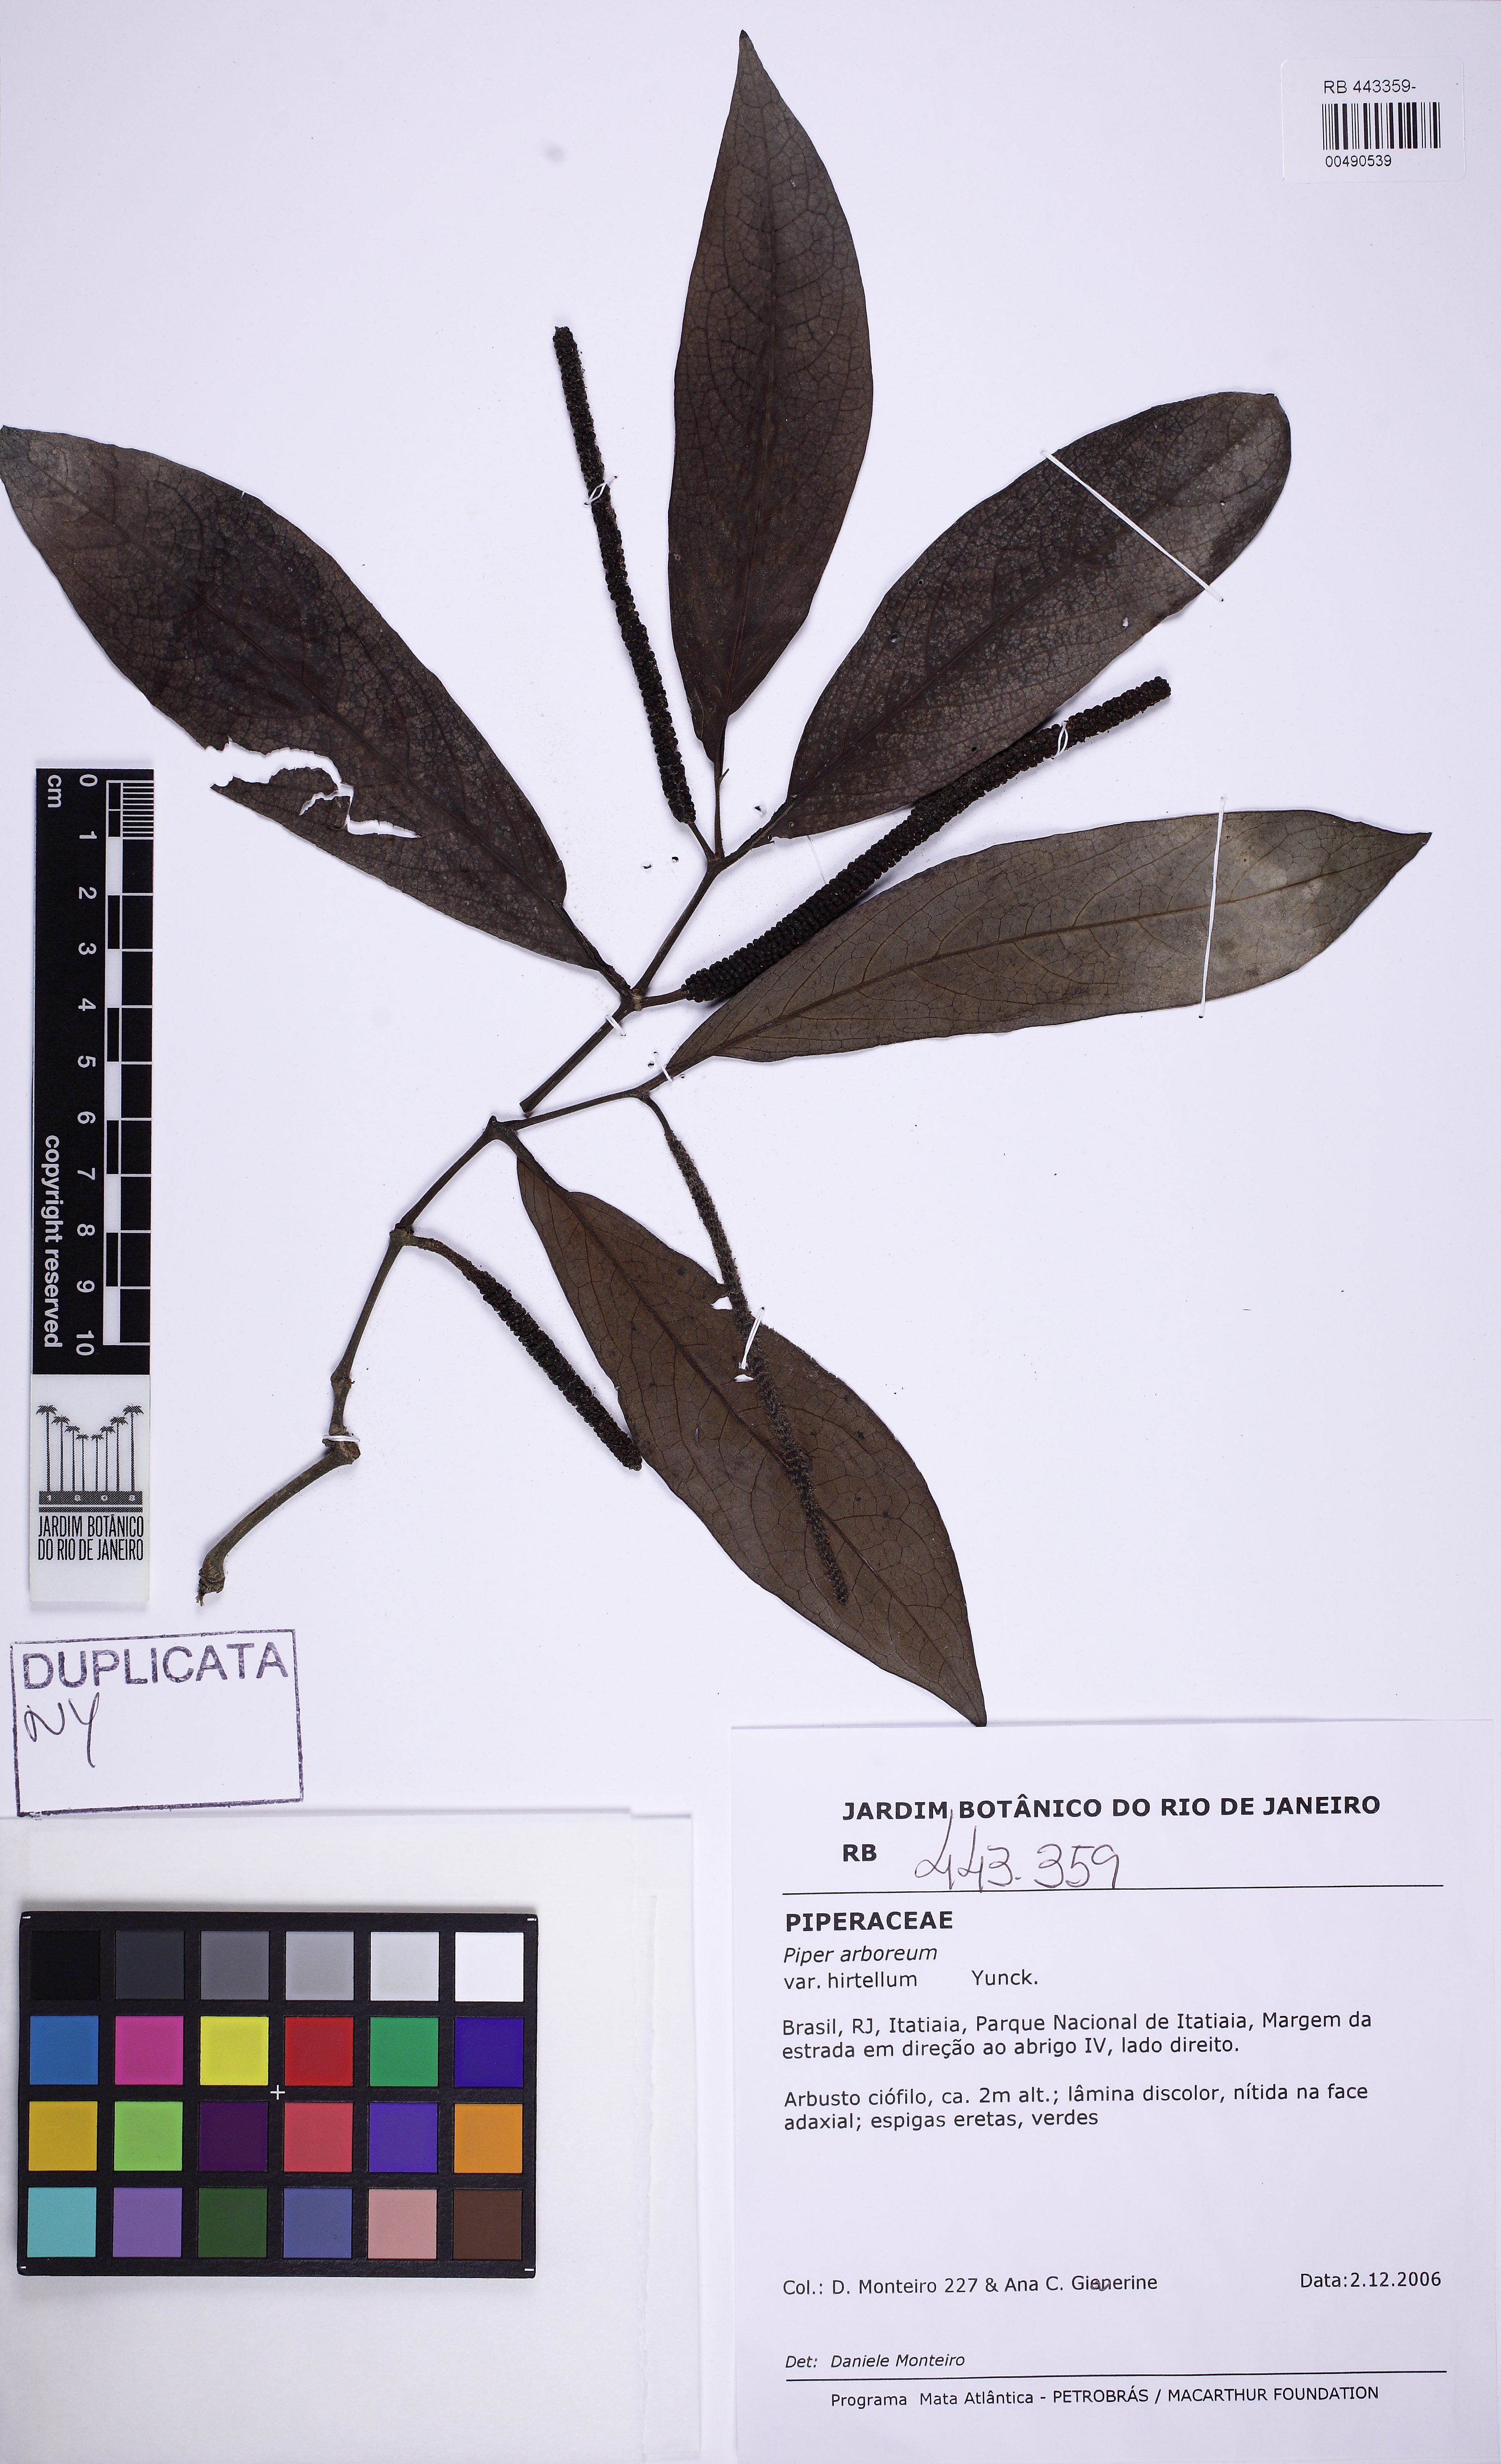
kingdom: Plantae
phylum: Tracheophyta
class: Magnoliopsida
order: Piperales
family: Piperaceae
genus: Piper
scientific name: Piper arboreum
